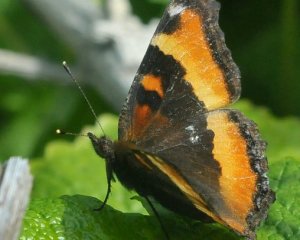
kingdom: Animalia
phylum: Arthropoda
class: Insecta
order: Lepidoptera
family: Nymphalidae
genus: Aglais
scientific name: Aglais milberti
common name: Milbert's Tortoiseshell
